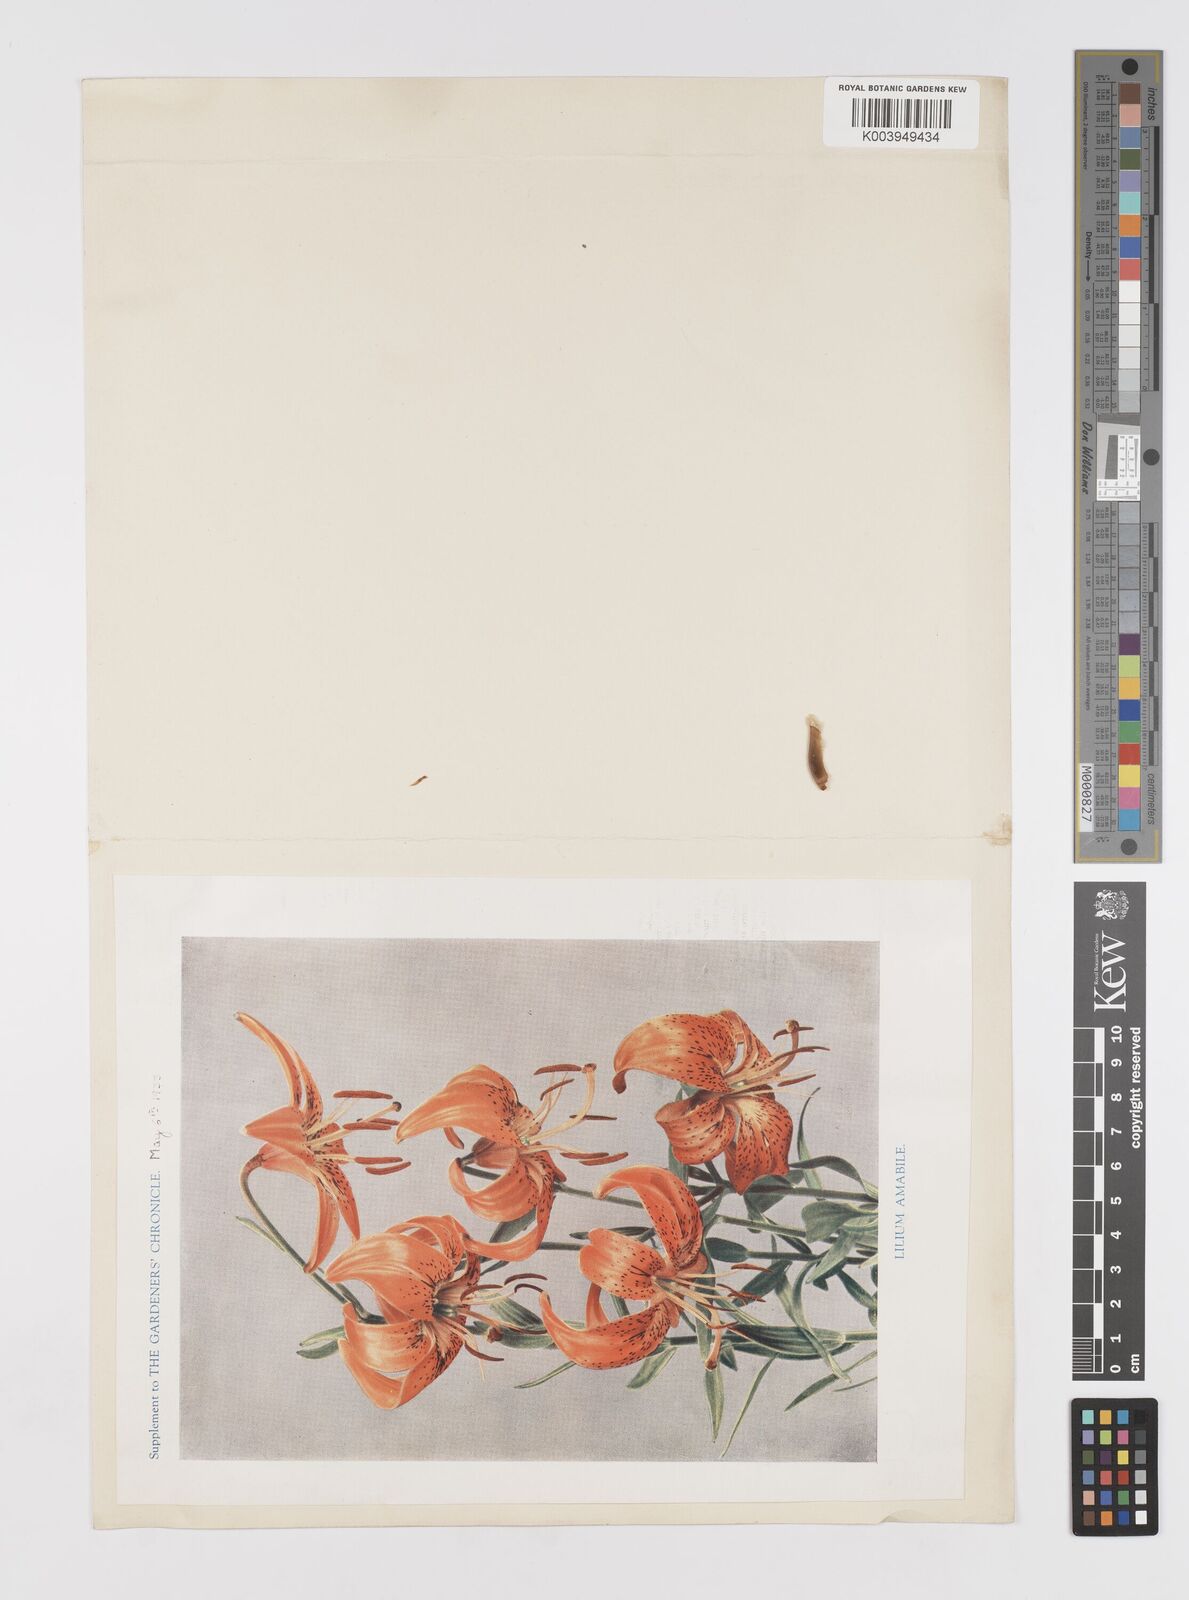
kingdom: Plantae
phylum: Tracheophyta
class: Liliopsida
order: Liliales
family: Liliaceae
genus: Lilium
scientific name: Lilium amabile
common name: Korean lily
